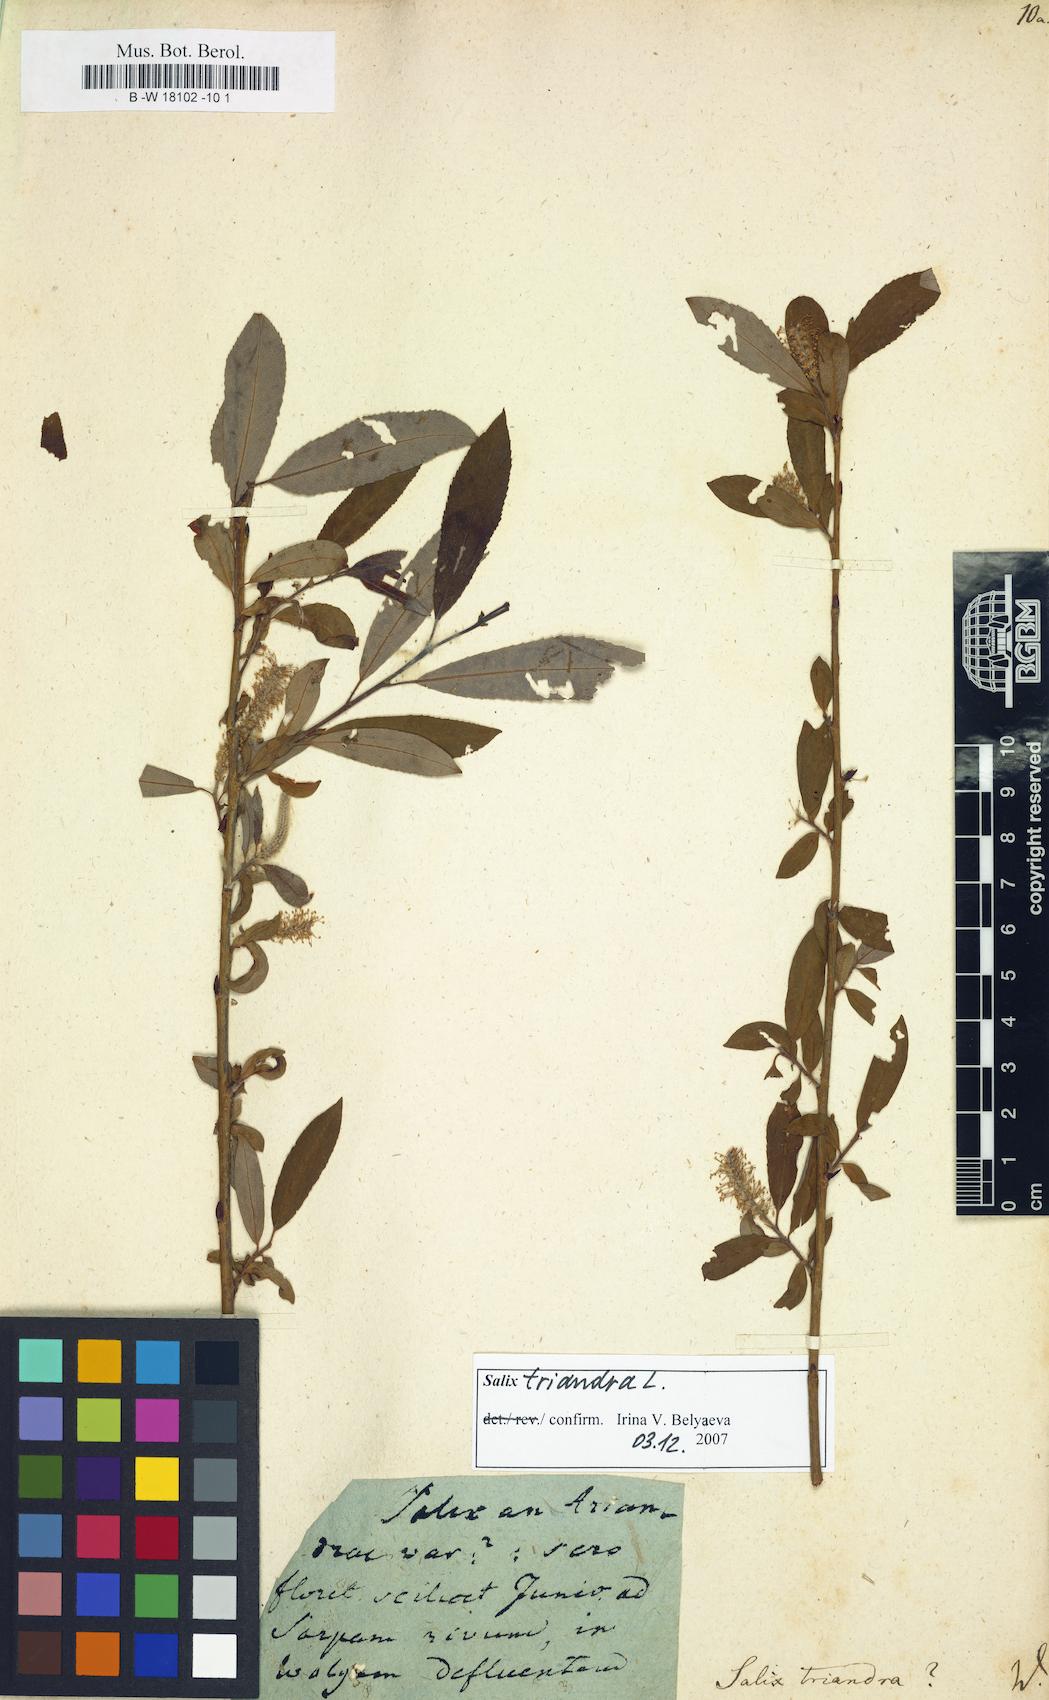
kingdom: Plantae
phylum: Tracheophyta
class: Magnoliopsida
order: Malpighiales
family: Salicaceae
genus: Salix
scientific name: Salix triandra
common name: Almond willow
